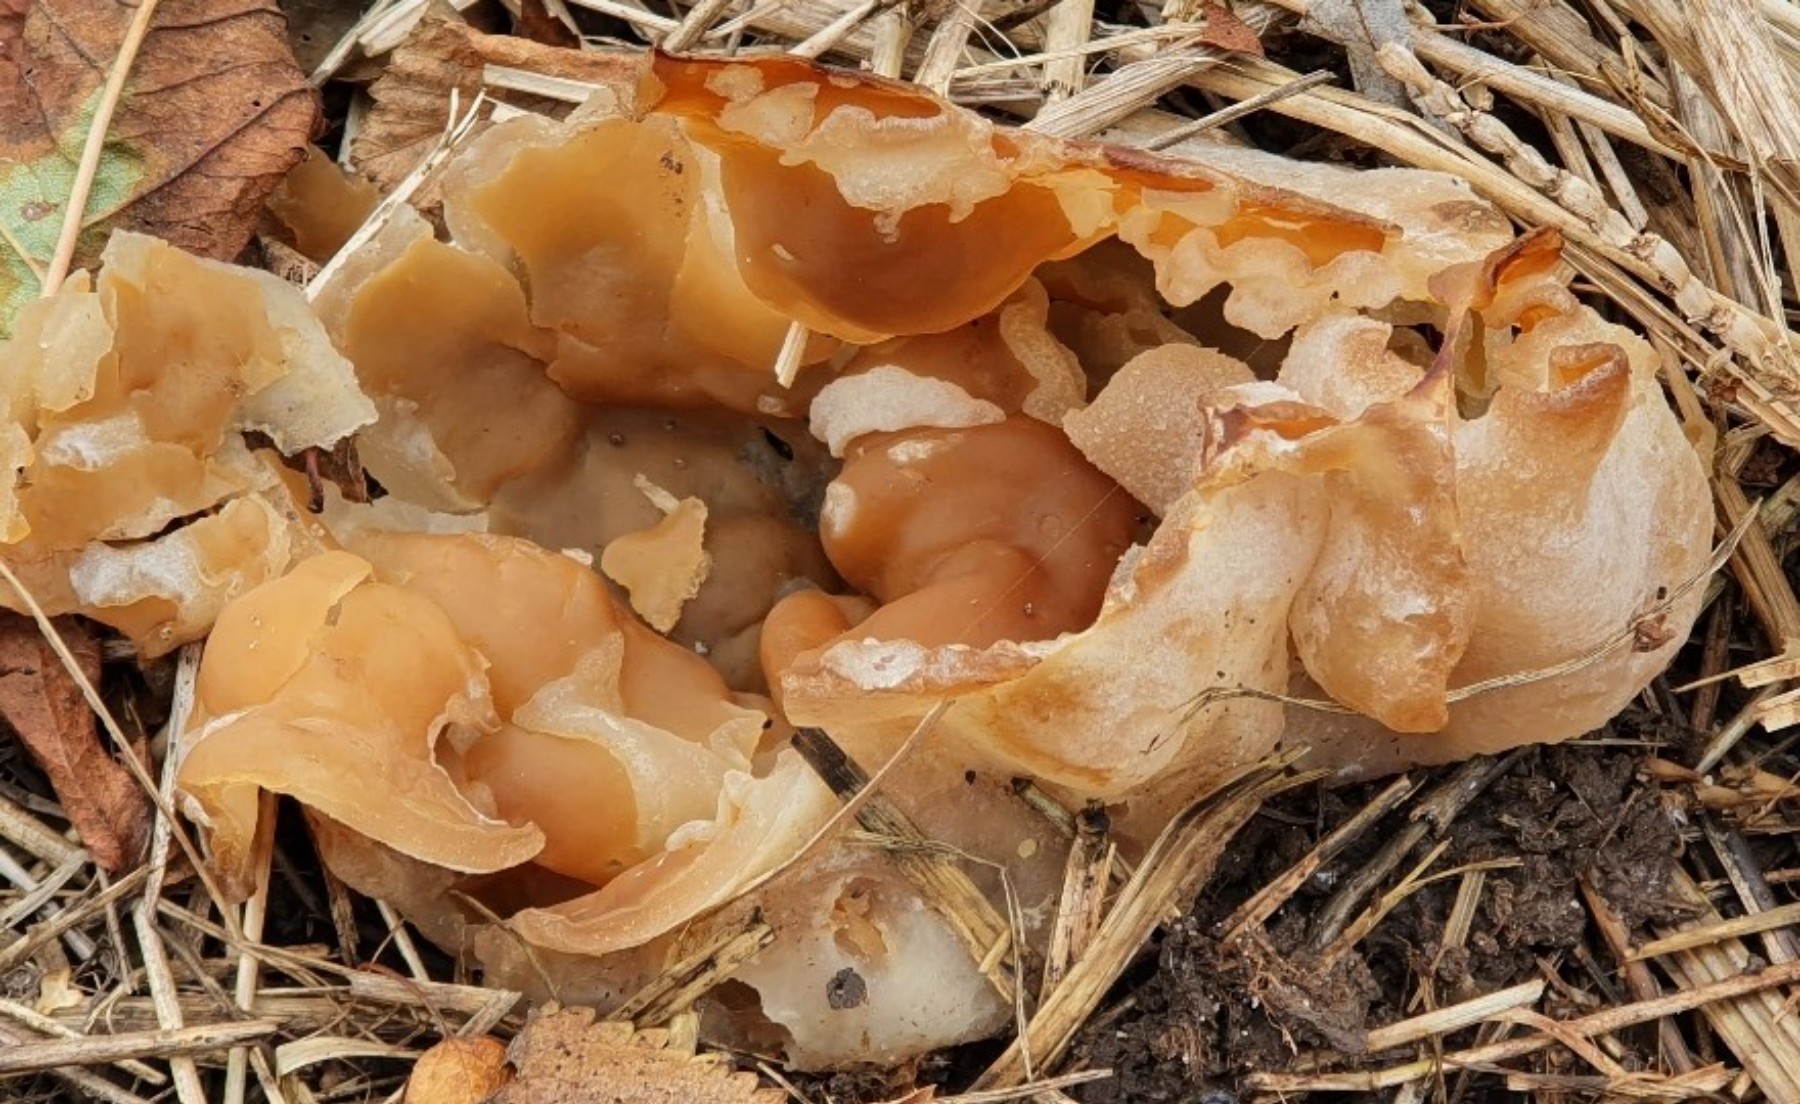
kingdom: Fungi
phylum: Ascomycota
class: Pezizomycetes
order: Pezizales
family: Pezizaceae
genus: Peziza
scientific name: Peziza vesiculosa
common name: blære-bægersvamp
